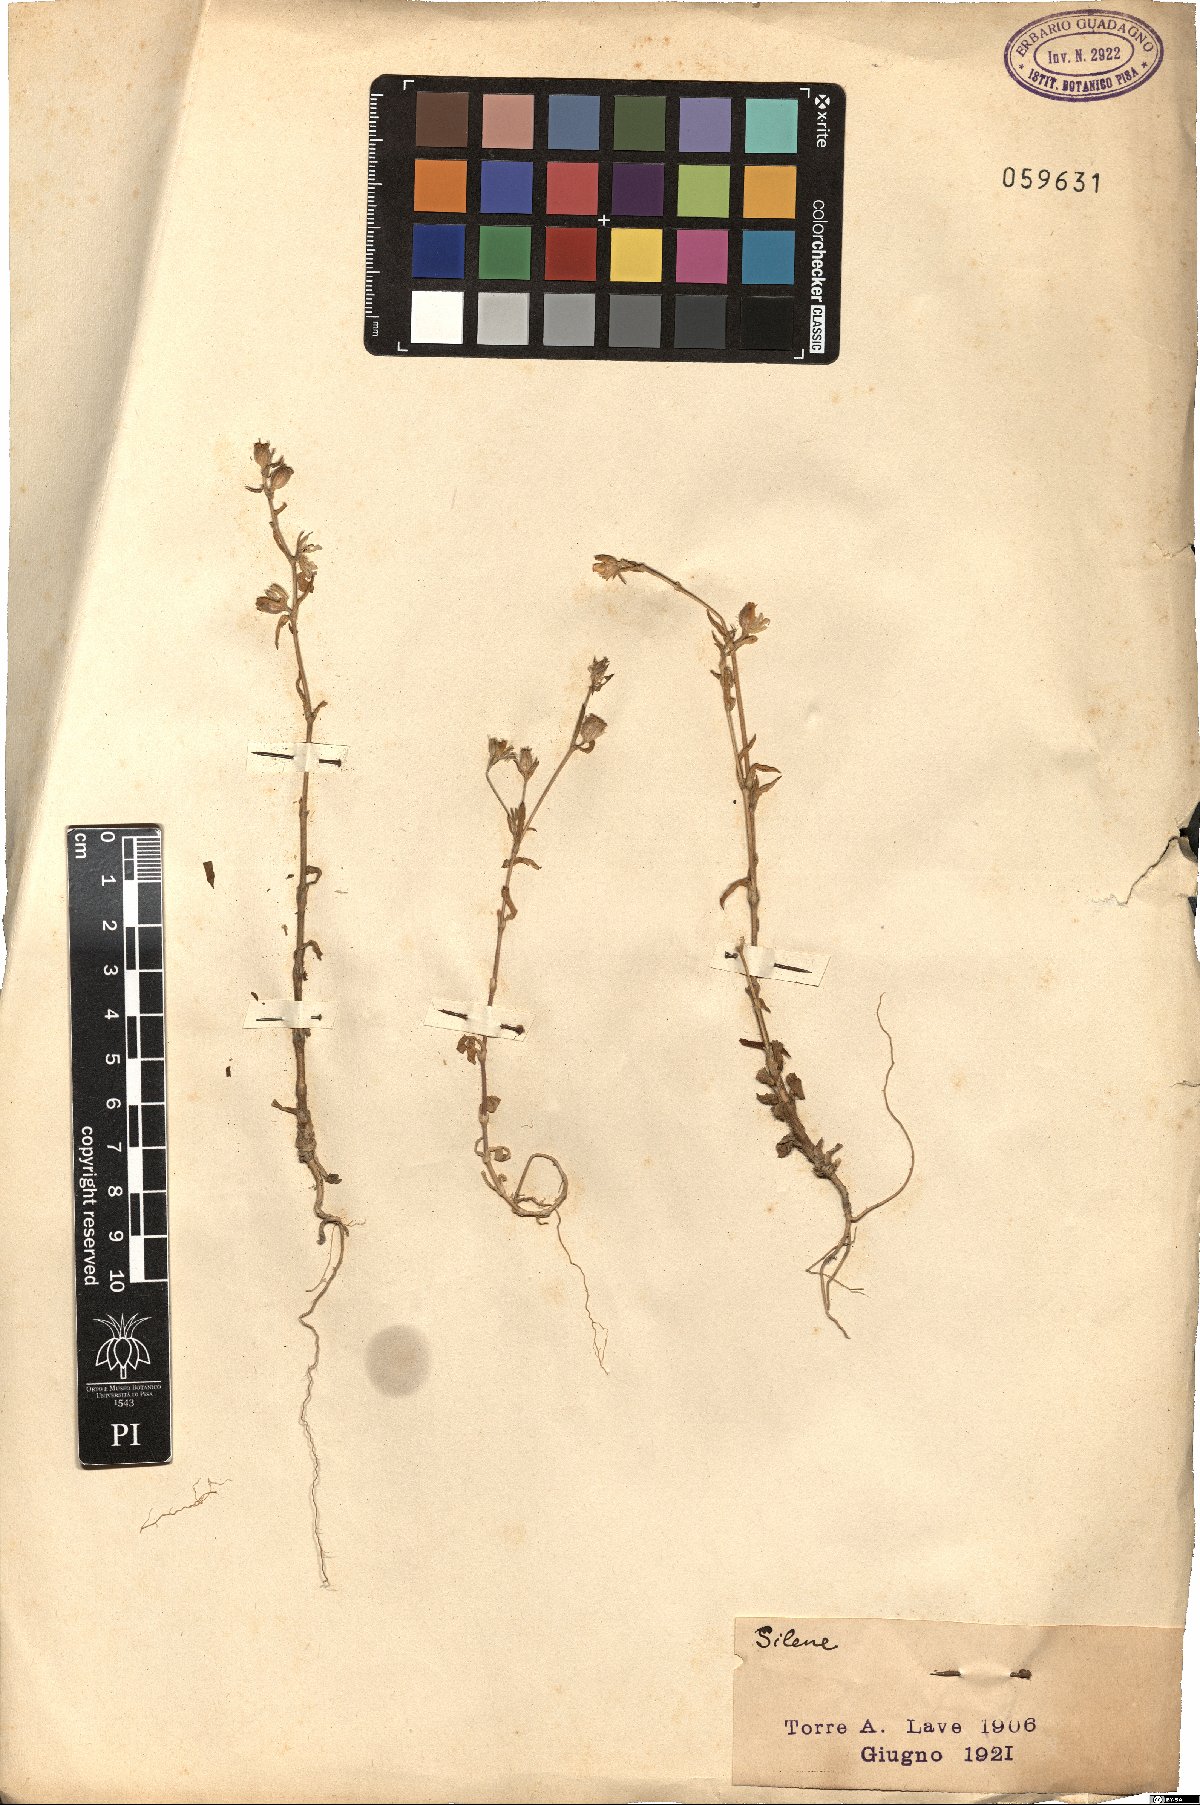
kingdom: Plantae
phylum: Tracheophyta
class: Magnoliopsida
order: Caryophyllales
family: Caryophyllaceae
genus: Silene
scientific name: Silene
